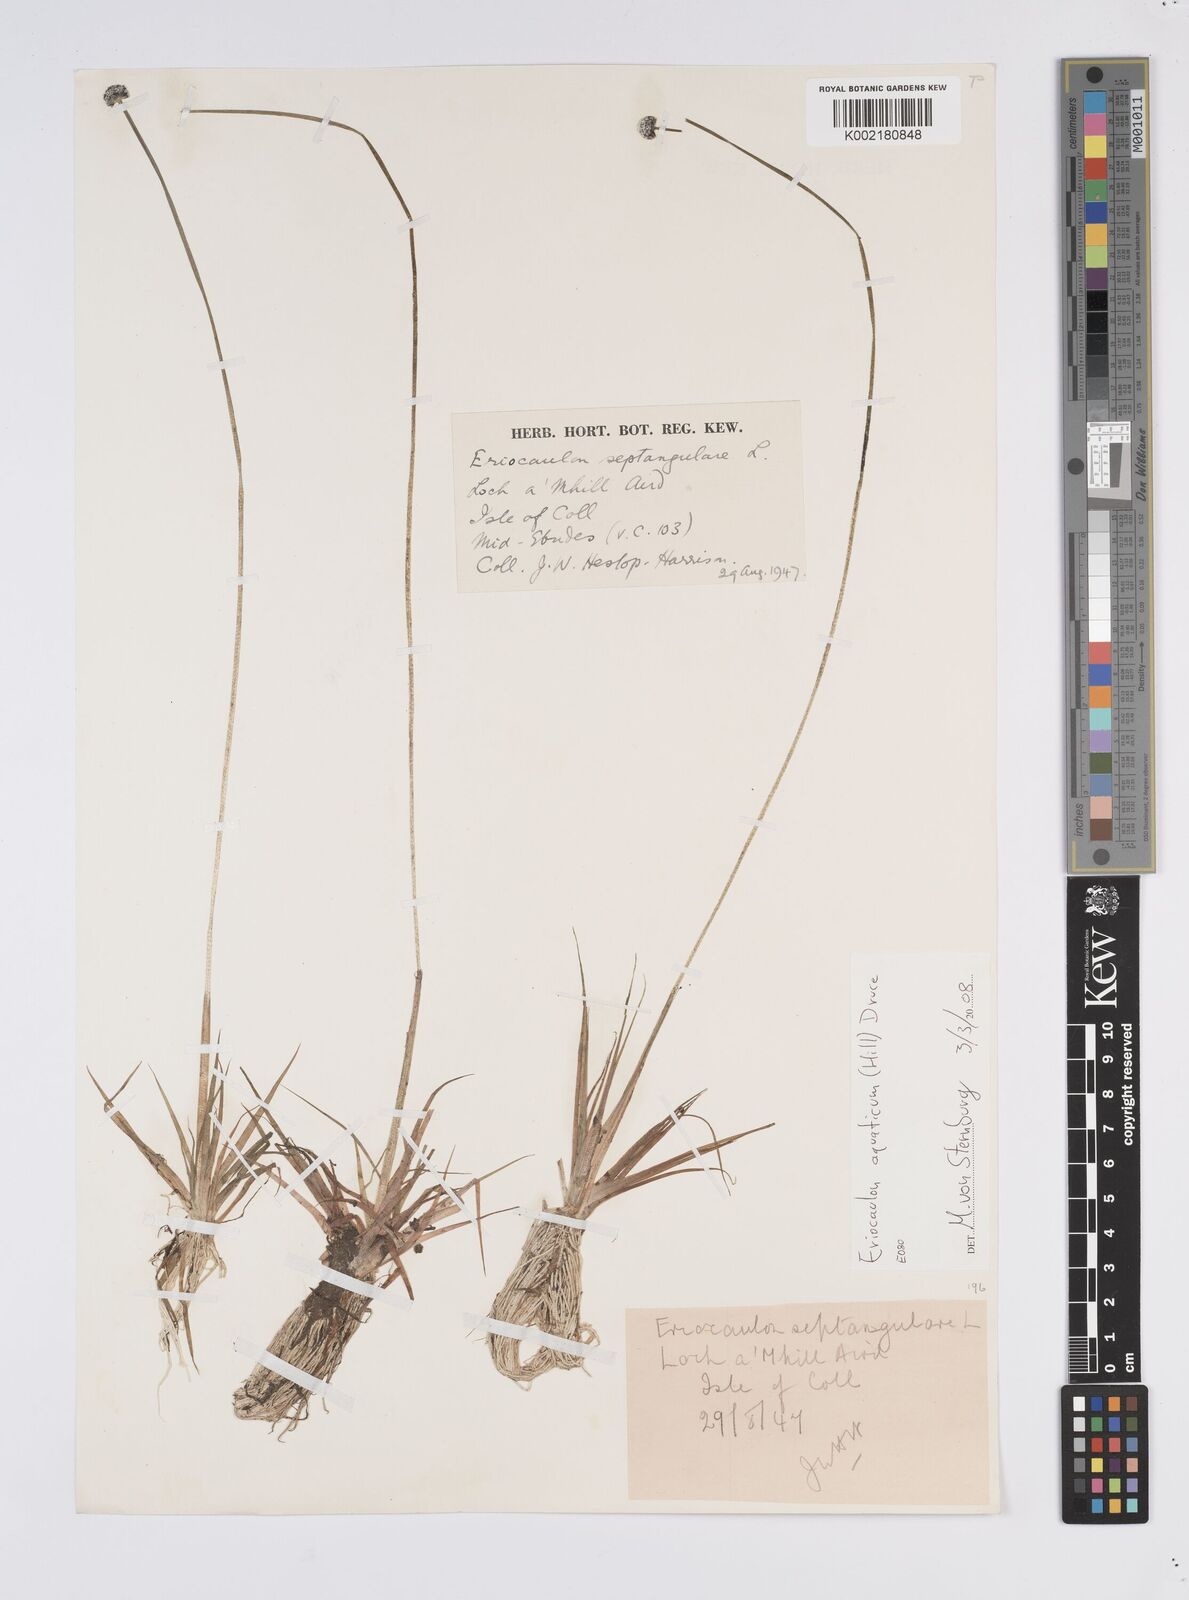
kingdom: Plantae
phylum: Tracheophyta
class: Liliopsida
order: Poales
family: Eriocaulaceae
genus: Eriocaulon
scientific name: Eriocaulon aquaticum
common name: Pipewort
